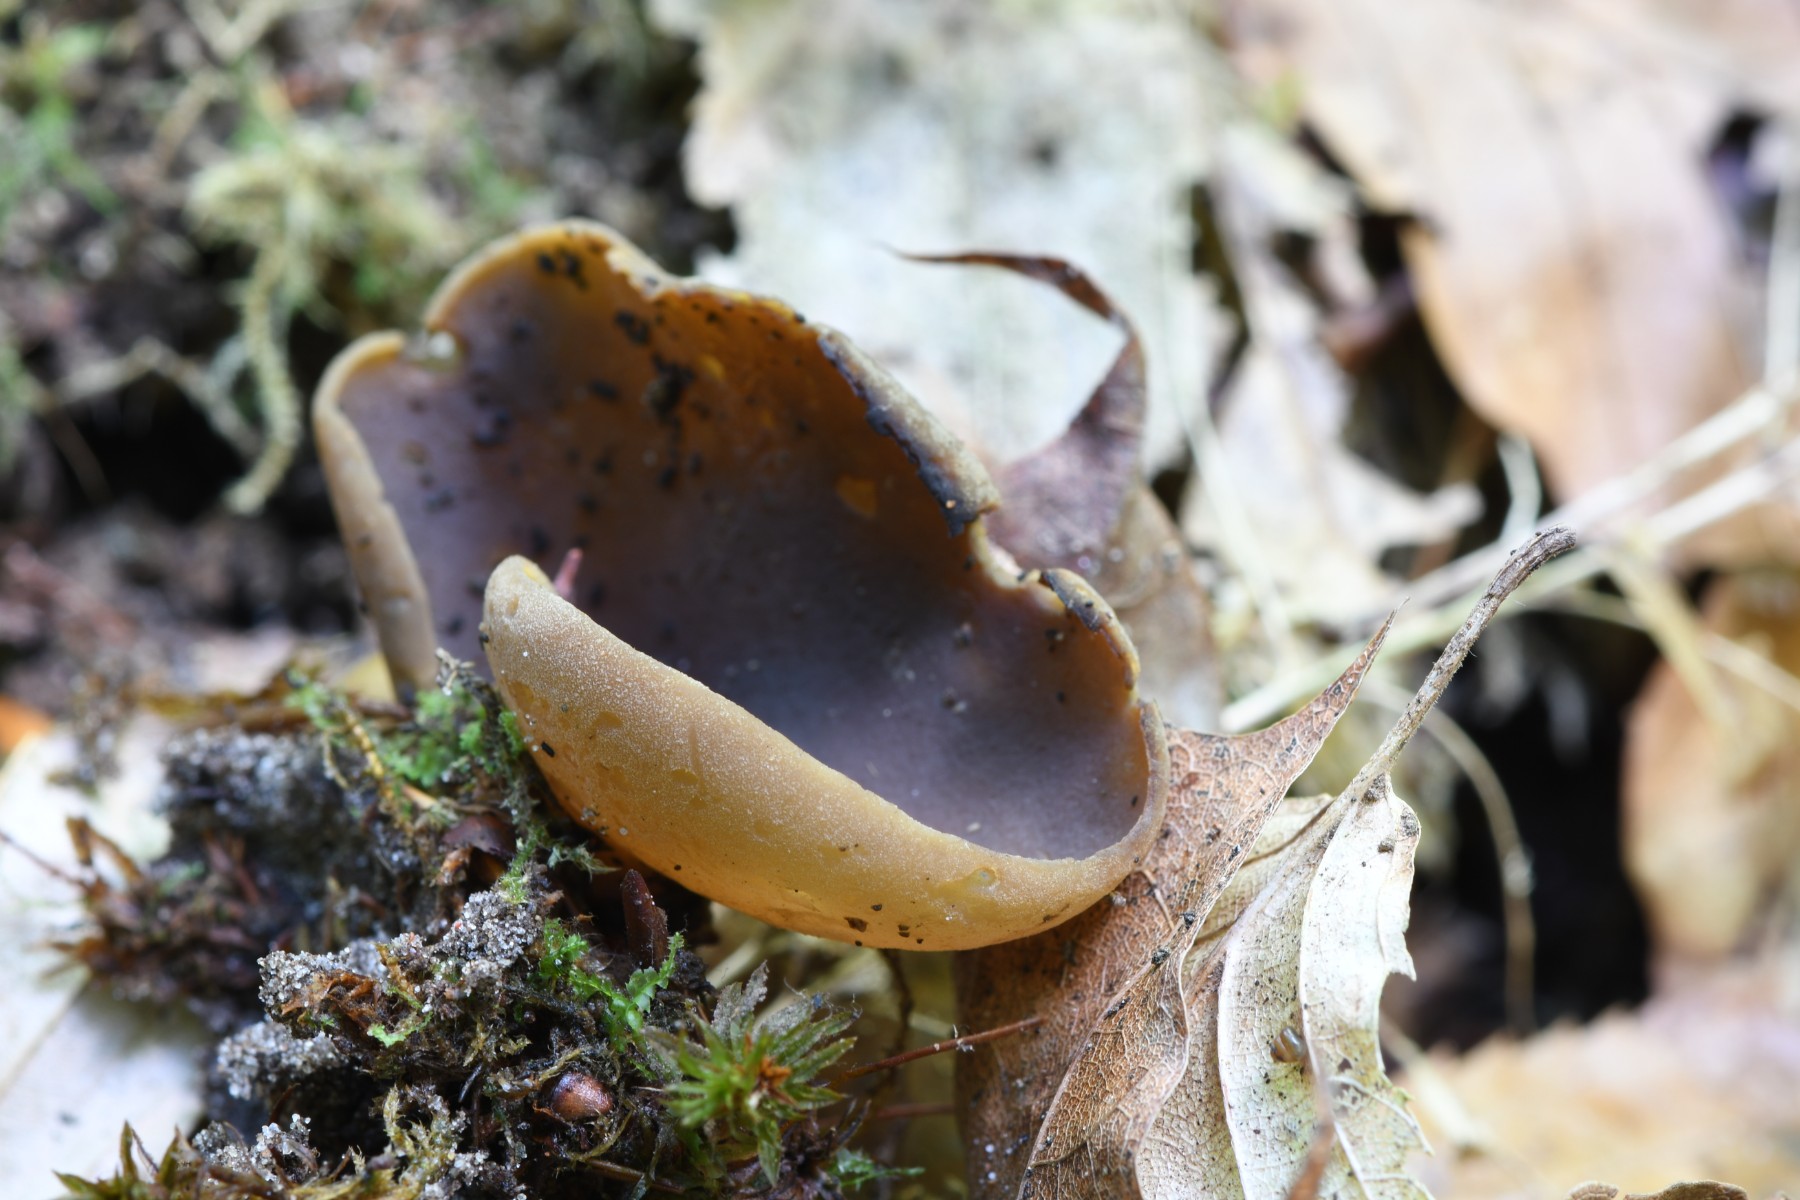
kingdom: Fungi
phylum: Ascomycota
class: Pezizomycetes
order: Pezizales
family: Pezizaceae
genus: Paragalactinia
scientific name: Paragalactinia michelii
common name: gulkødet bægersvamp
